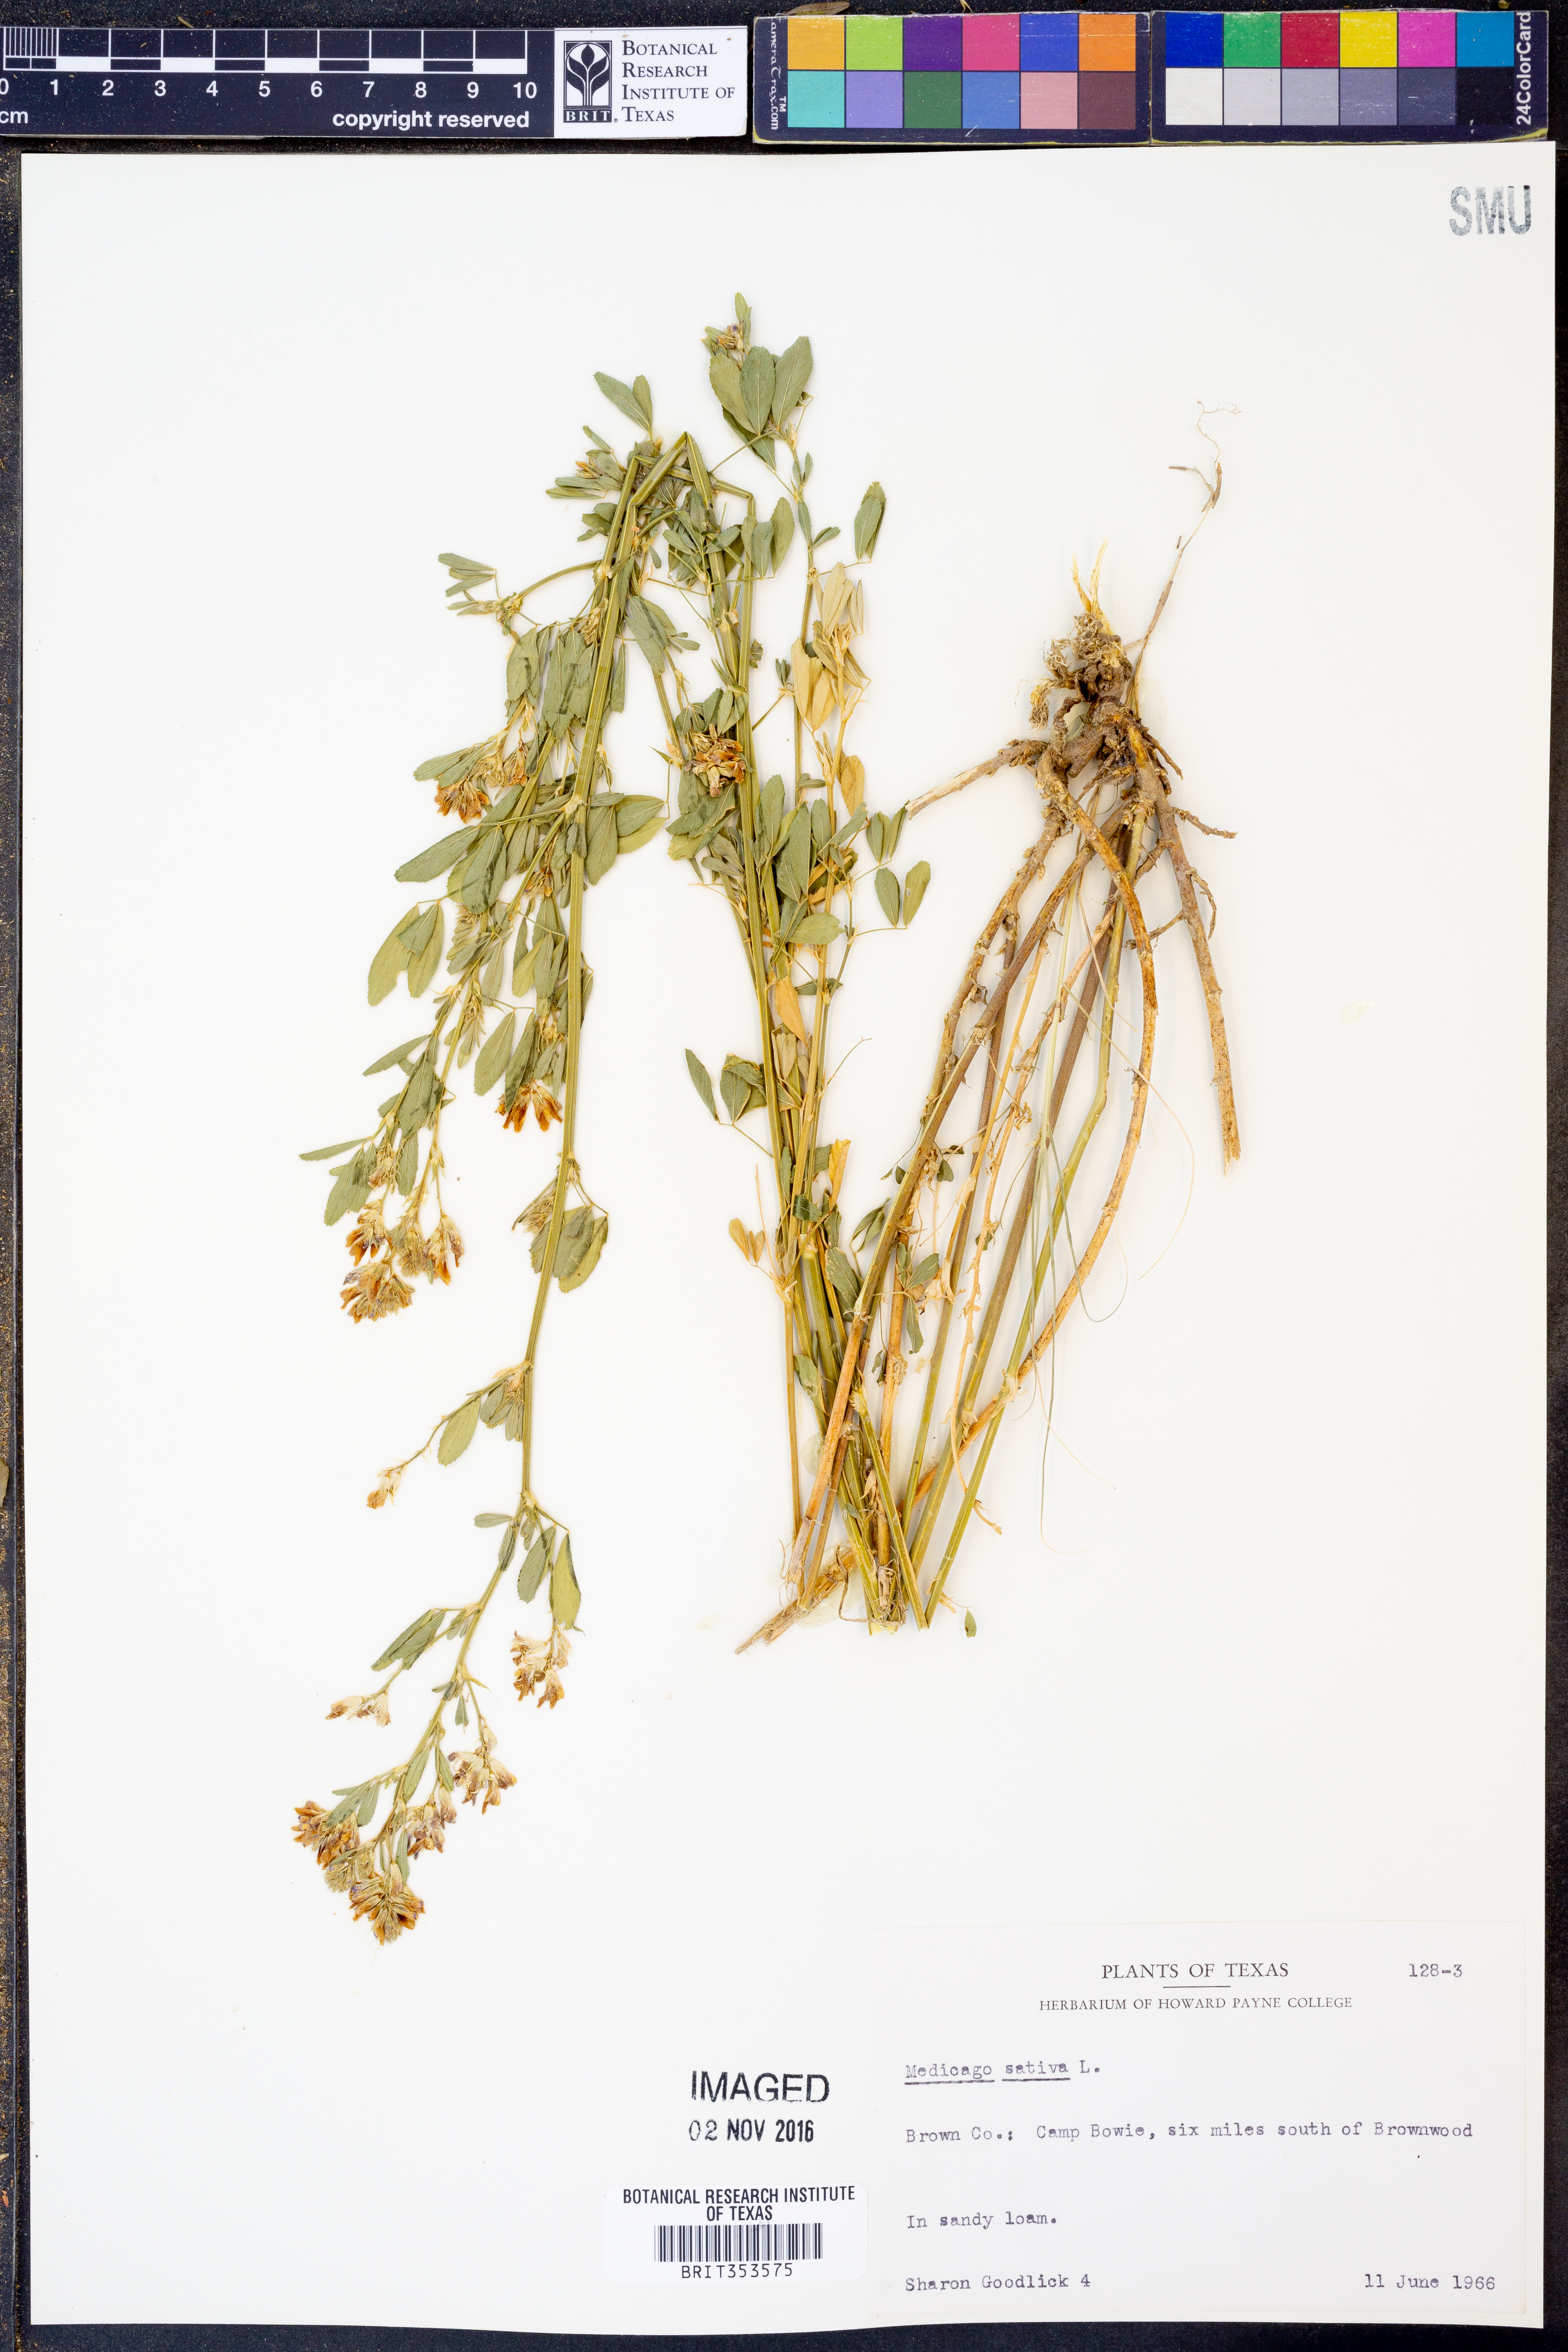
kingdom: Plantae
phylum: Tracheophyta
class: Magnoliopsida
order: Fabales
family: Fabaceae
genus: Medicago
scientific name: Medicago sativa
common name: Alfalfa
